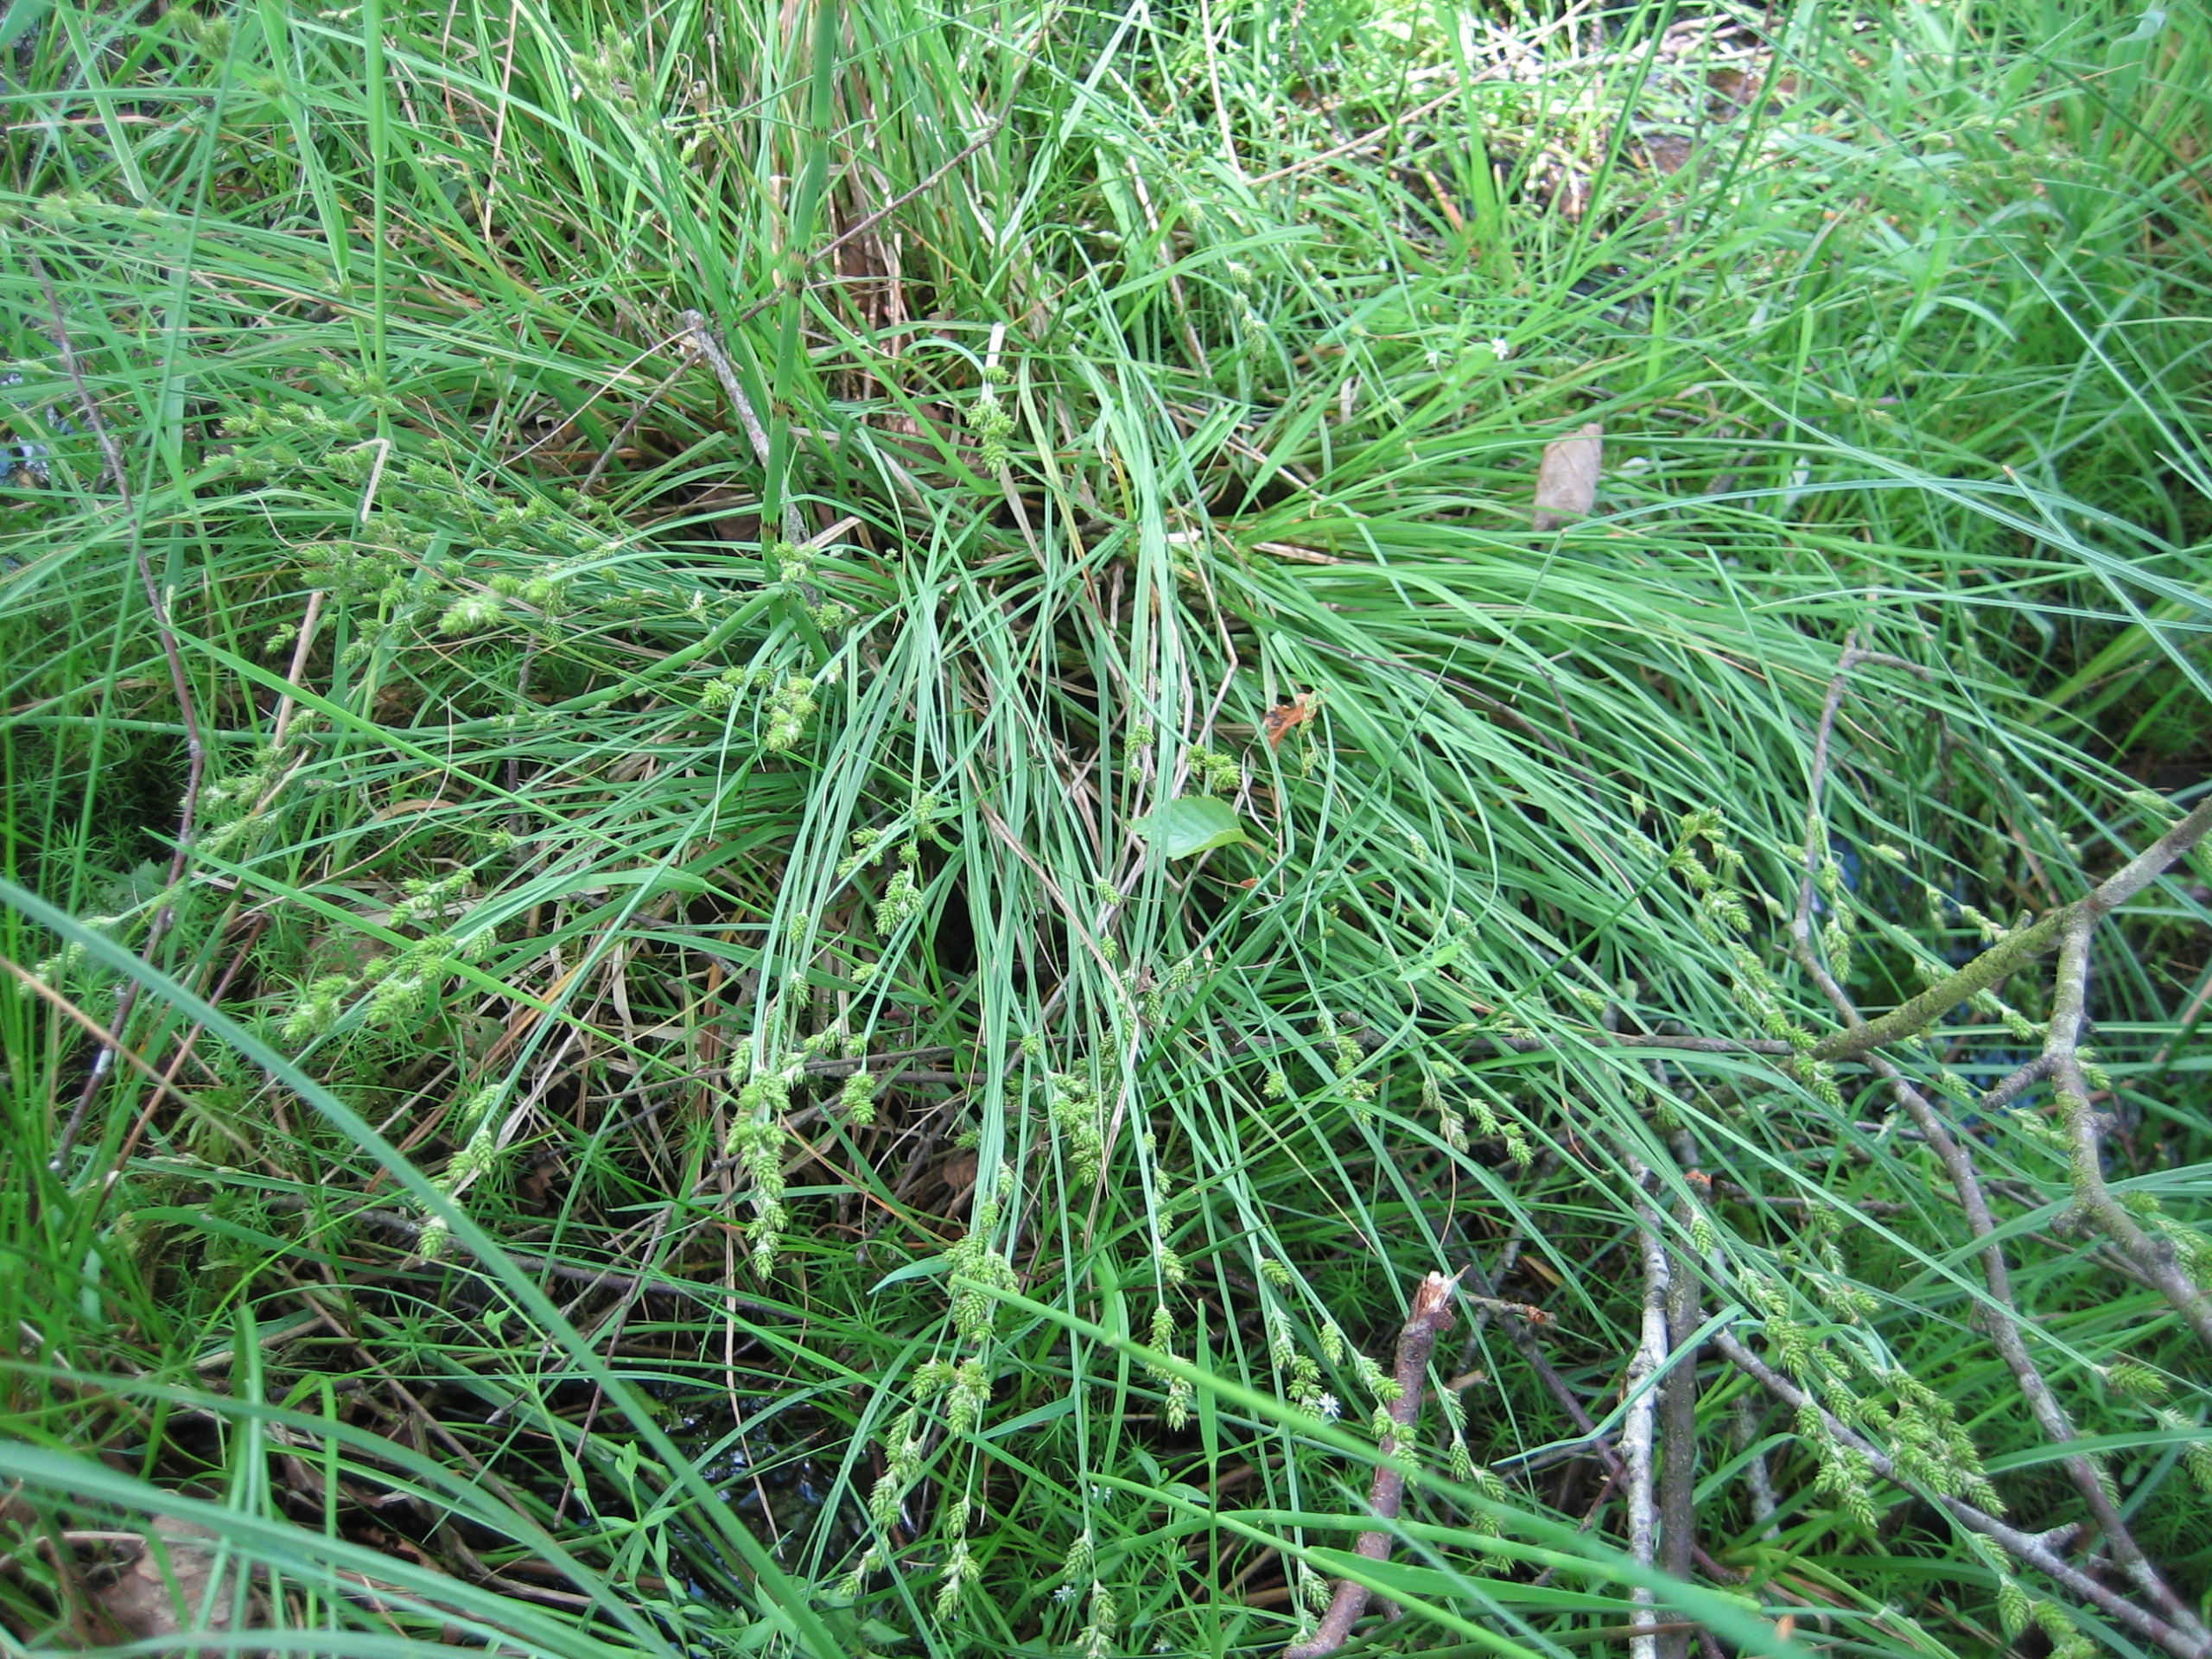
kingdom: Plantae
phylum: Tracheophyta
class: Liliopsida
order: Poales
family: Cyperaceae
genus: Carex
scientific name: Carex canescens
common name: Grå star
